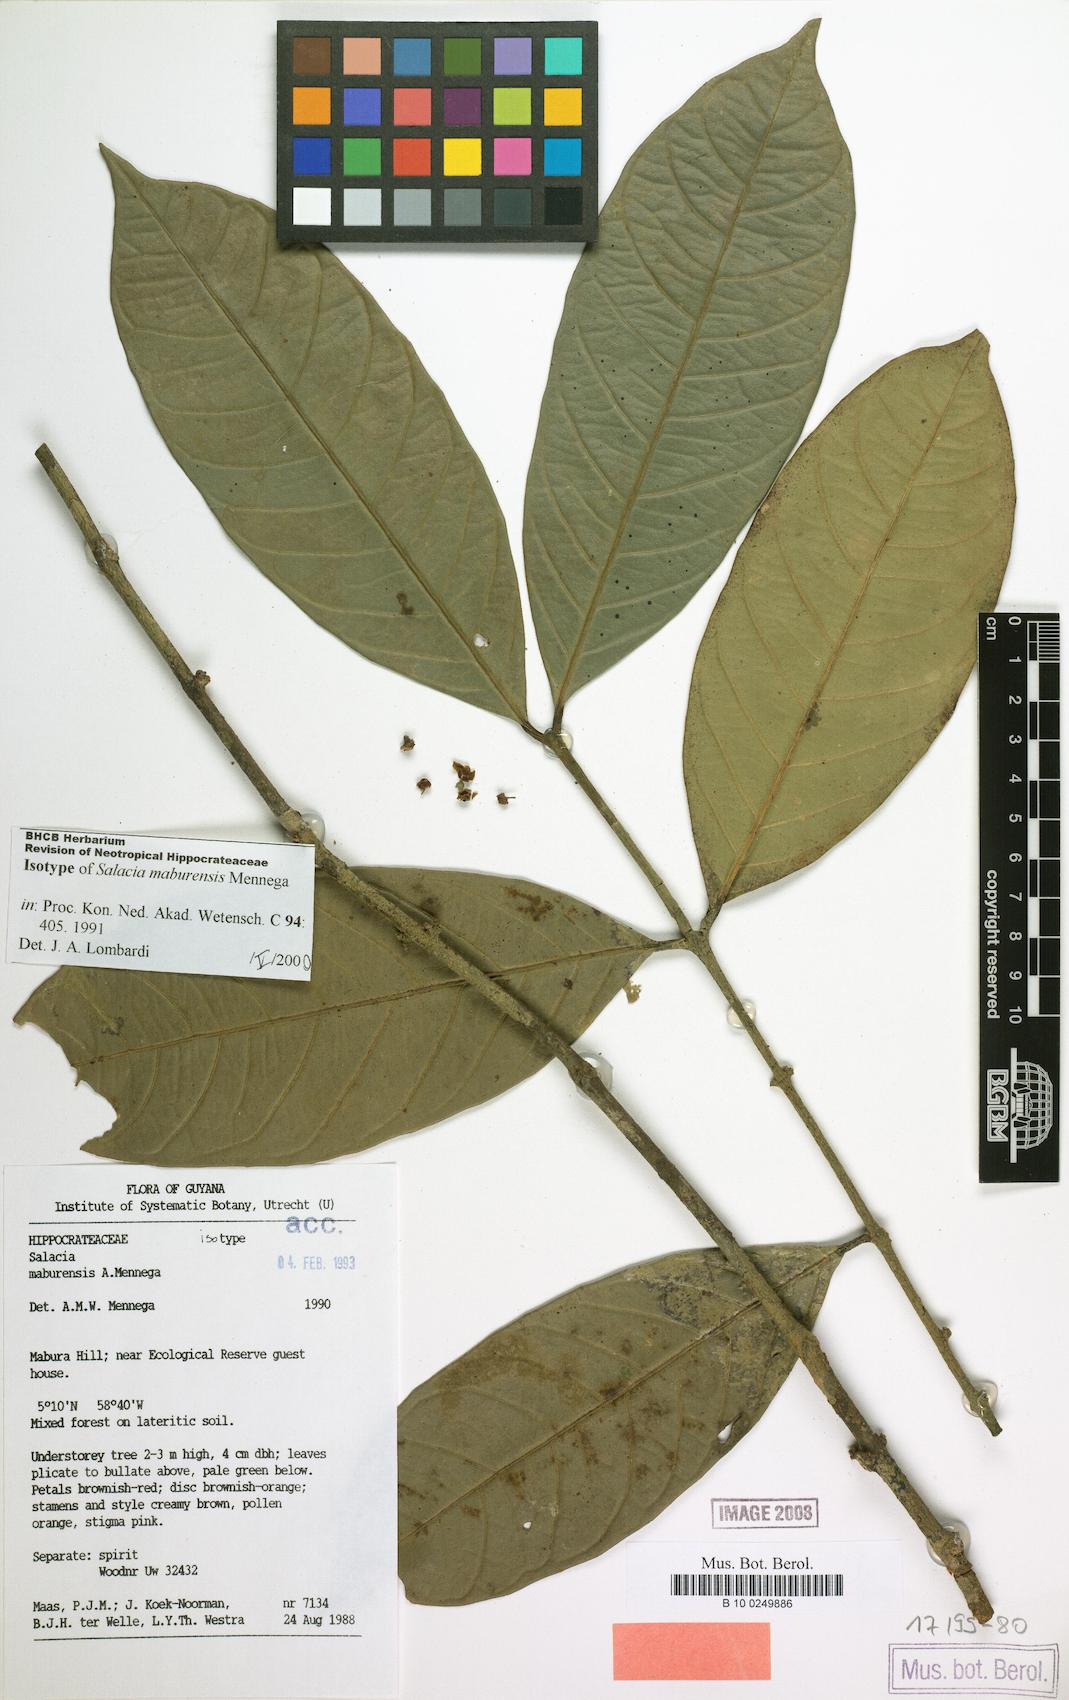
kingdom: Plantae
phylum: Tracheophyta
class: Magnoliopsida
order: Celastrales
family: Celastraceae
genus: Salacia
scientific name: Salacia maburensis
